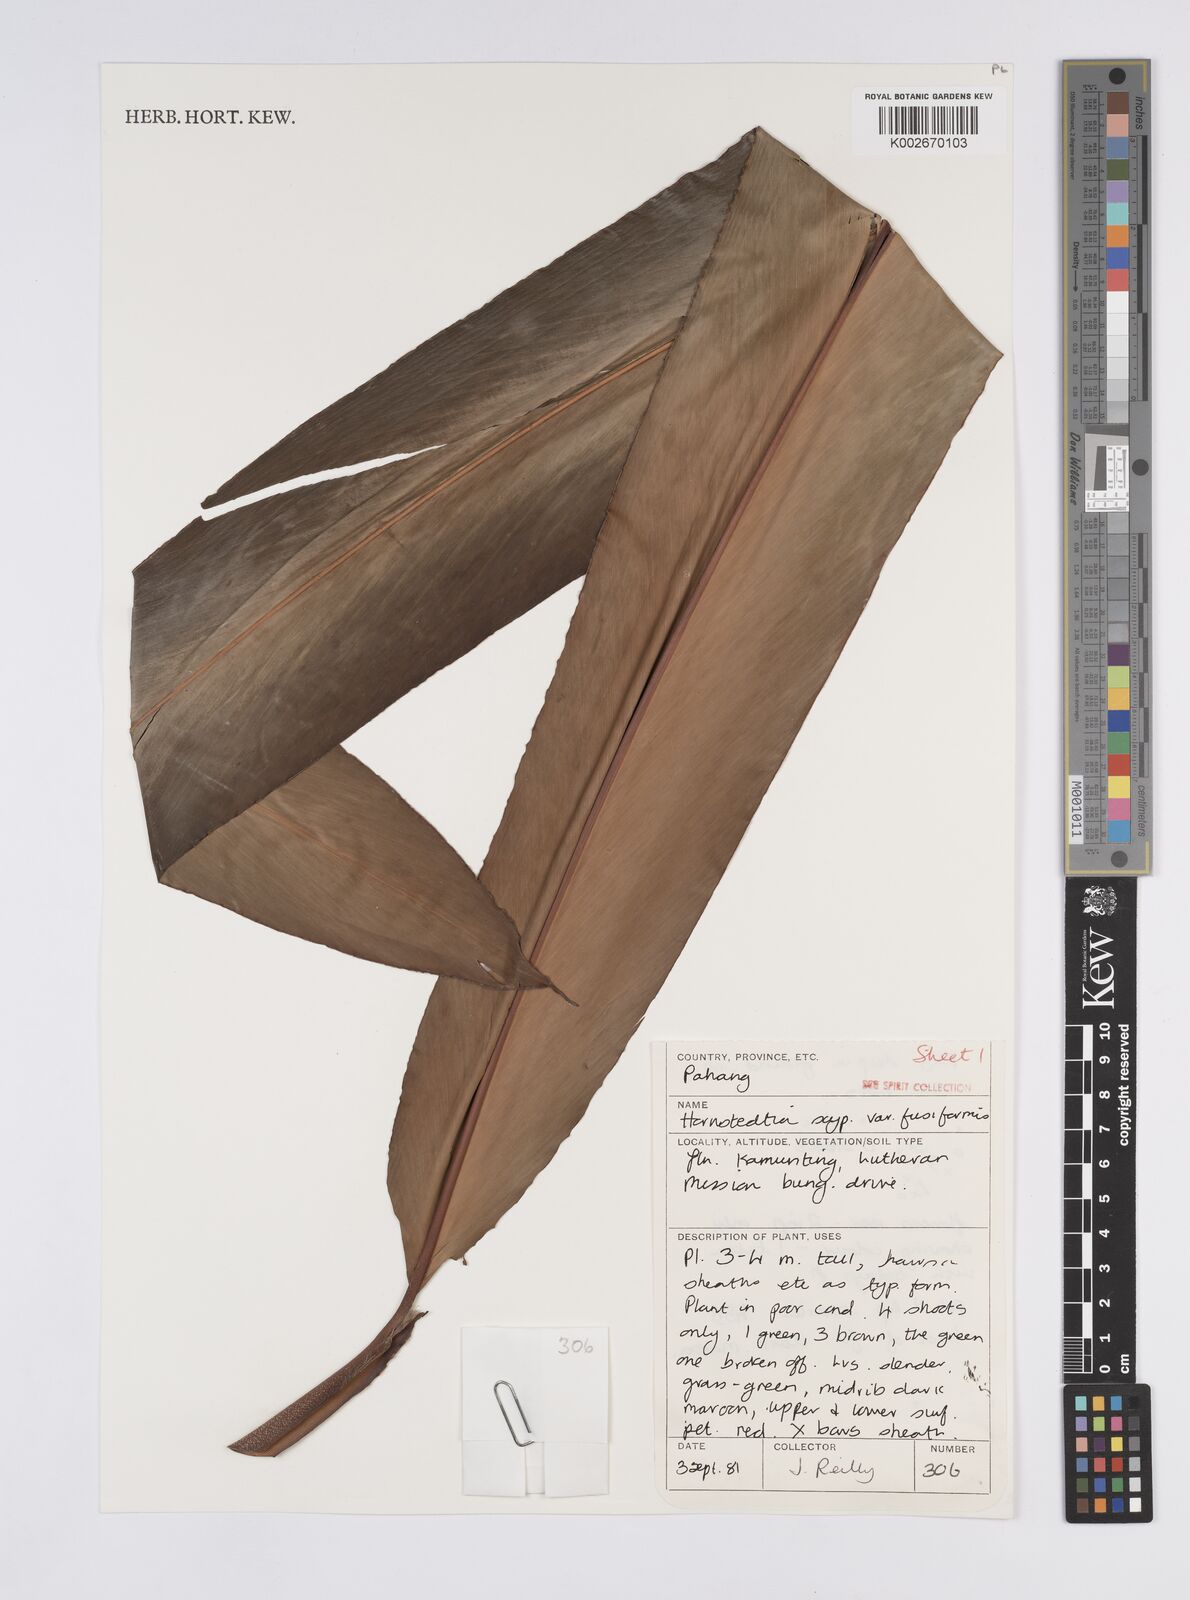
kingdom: Plantae
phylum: Tracheophyta
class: Liliopsida
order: Zingiberales
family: Zingiberaceae
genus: Hornstedtia
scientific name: Hornstedtia scyphifera
